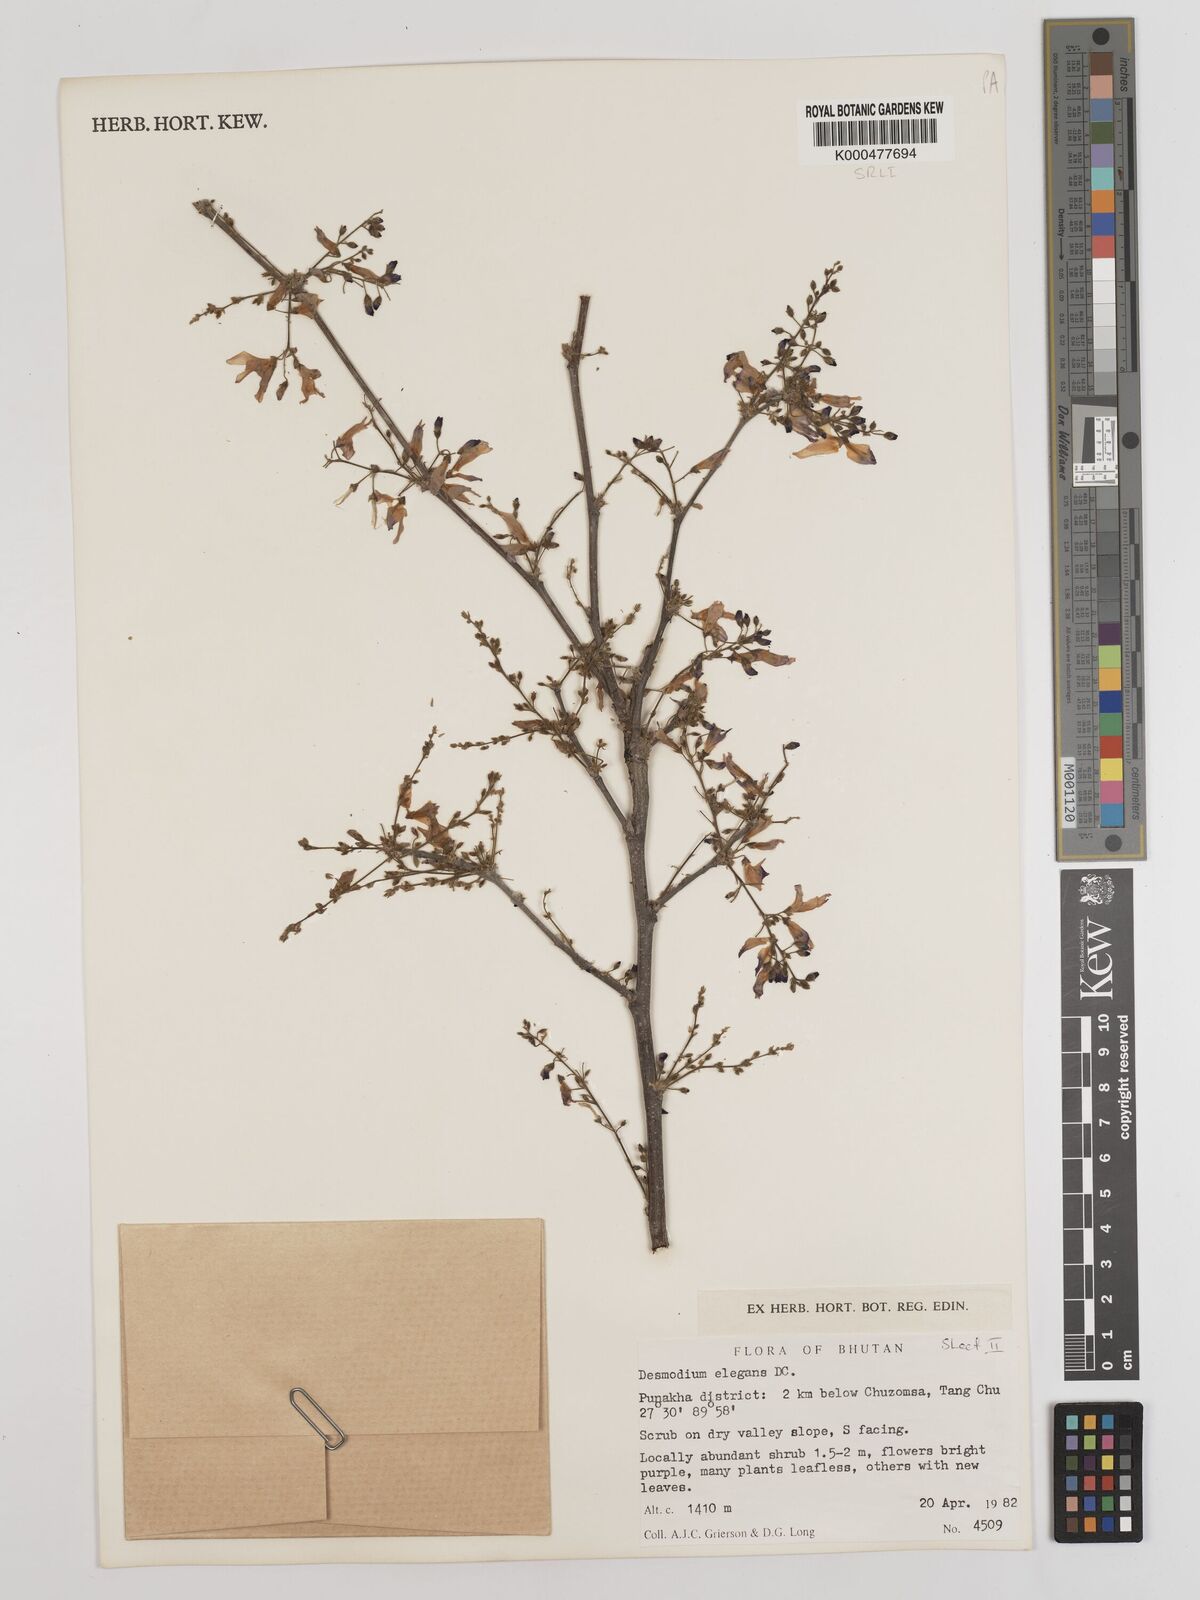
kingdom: Plantae
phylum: Tracheophyta
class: Magnoliopsida
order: Fabales
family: Fabaceae
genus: Sunhangia
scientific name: Sunhangia elegans
